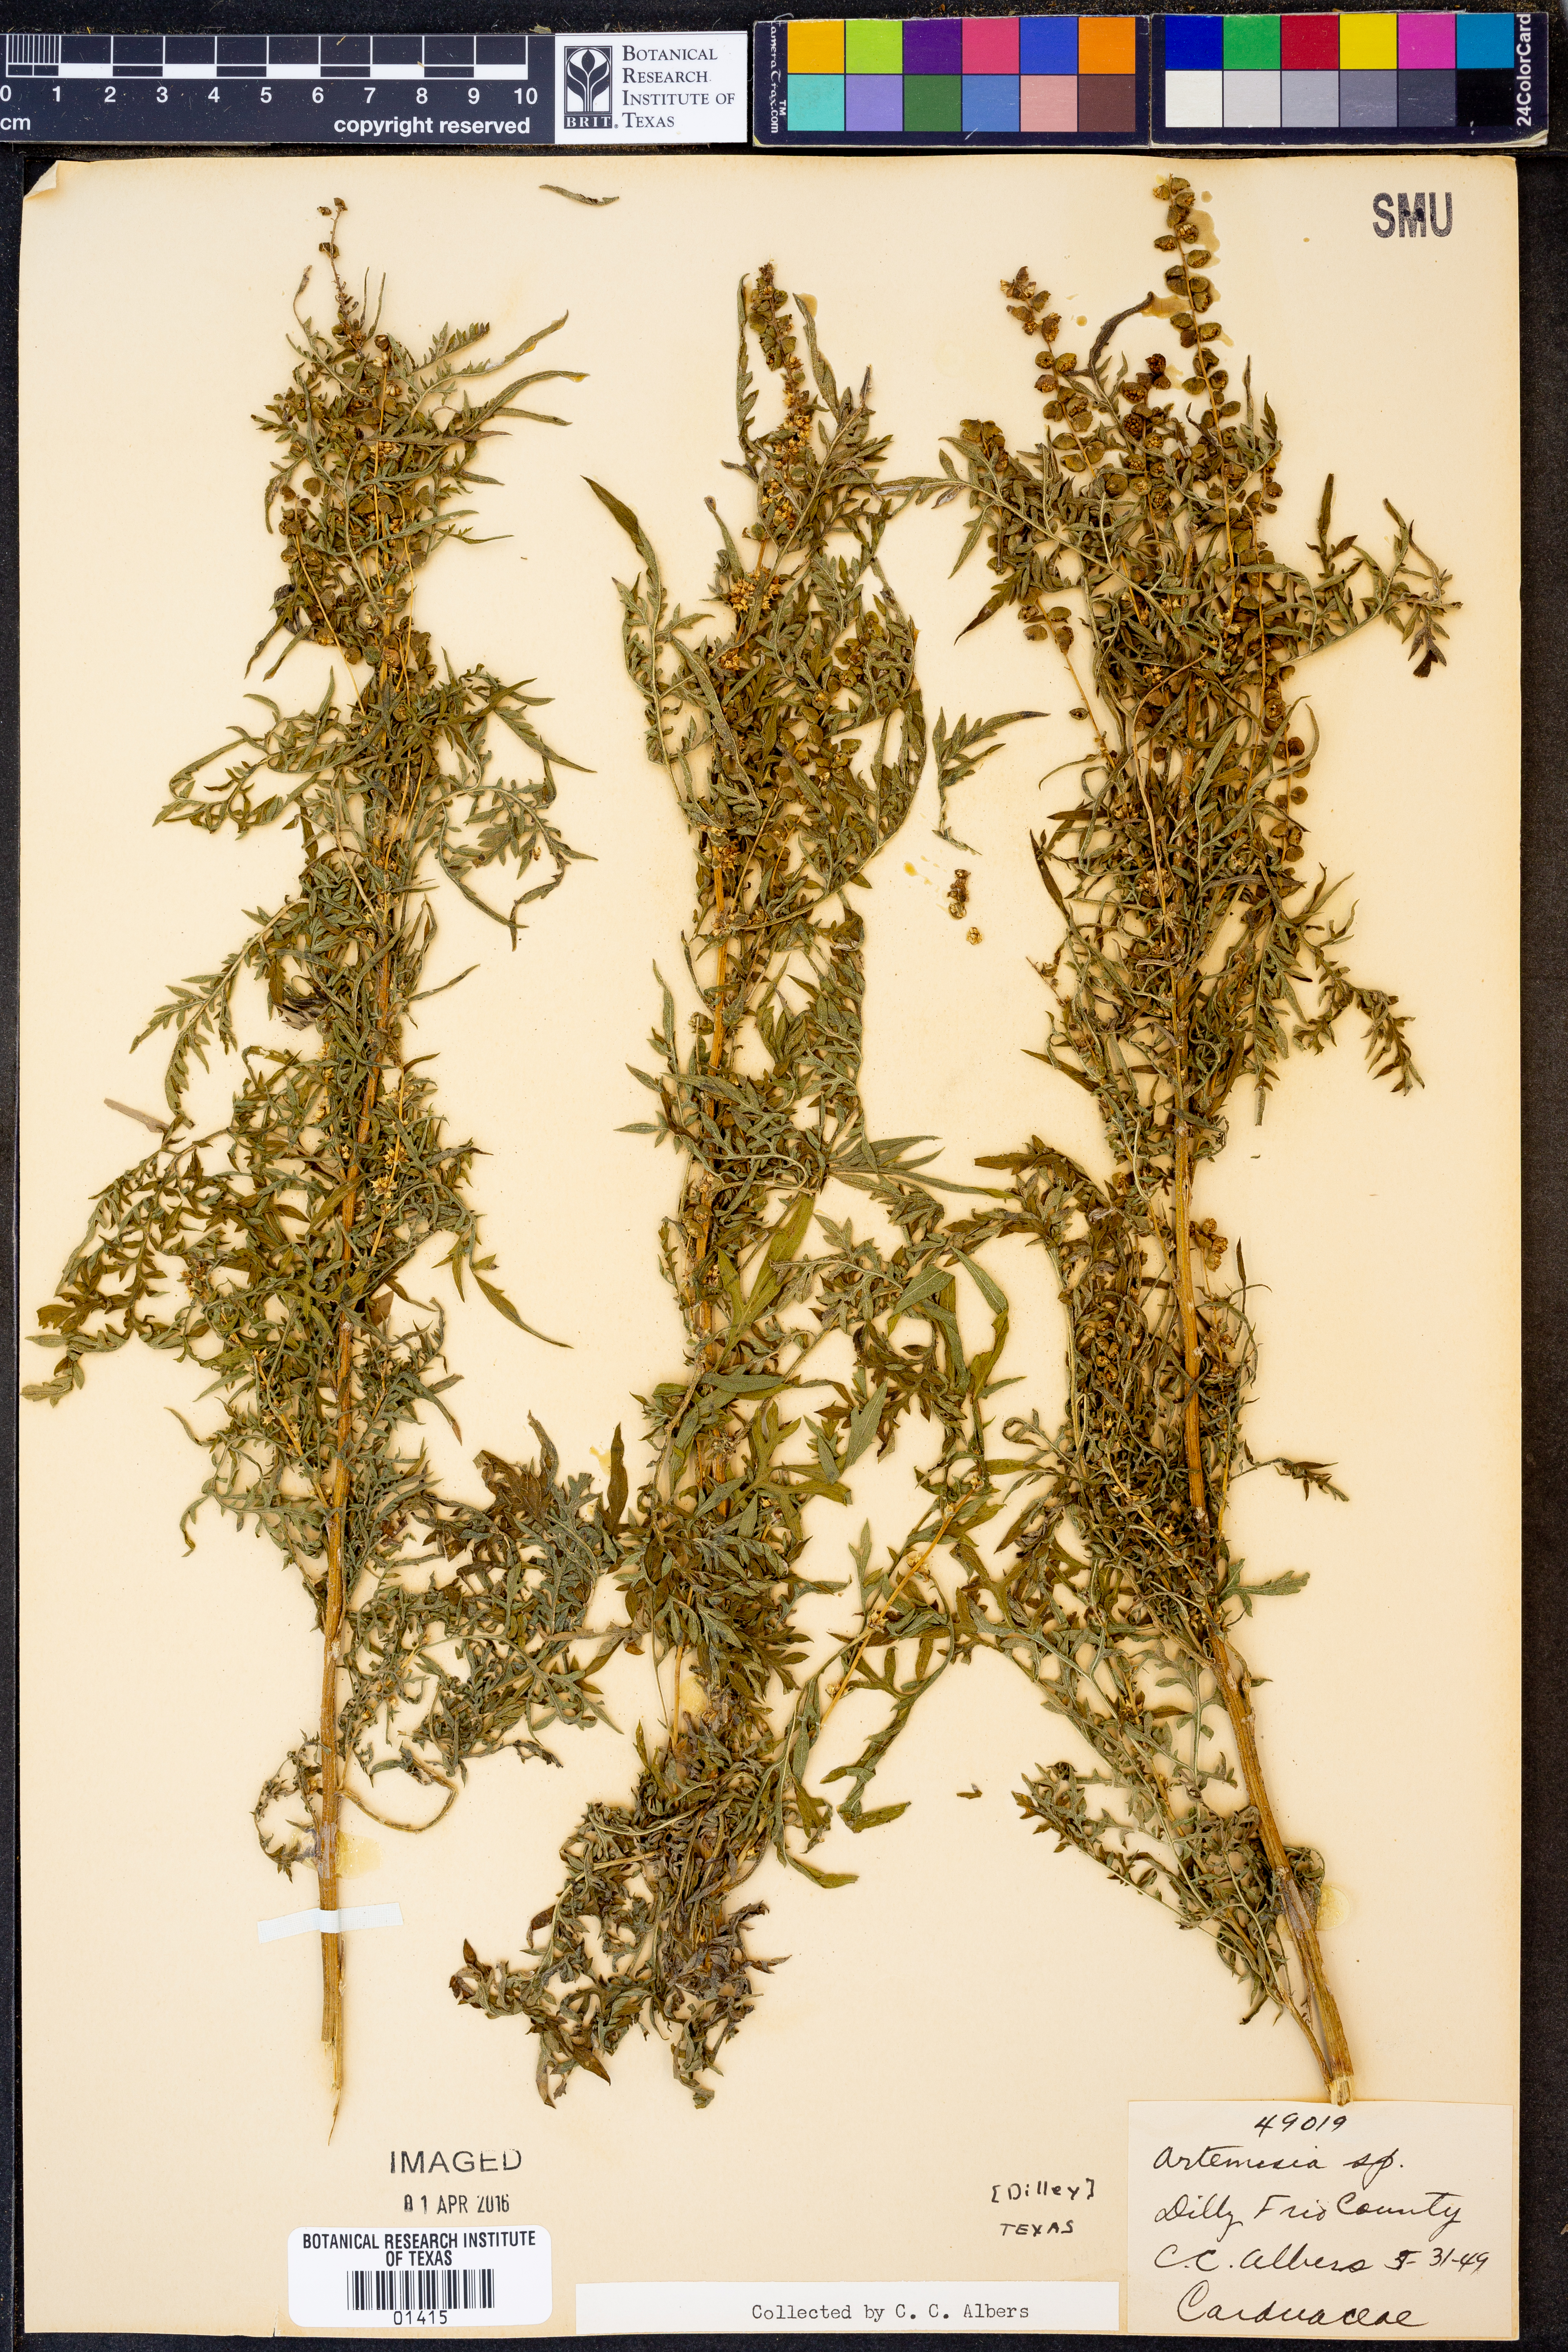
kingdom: Plantae
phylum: Tracheophyta
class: Magnoliopsida
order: Asterales
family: Asteraceae
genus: Artemisia
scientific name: Artemisia
